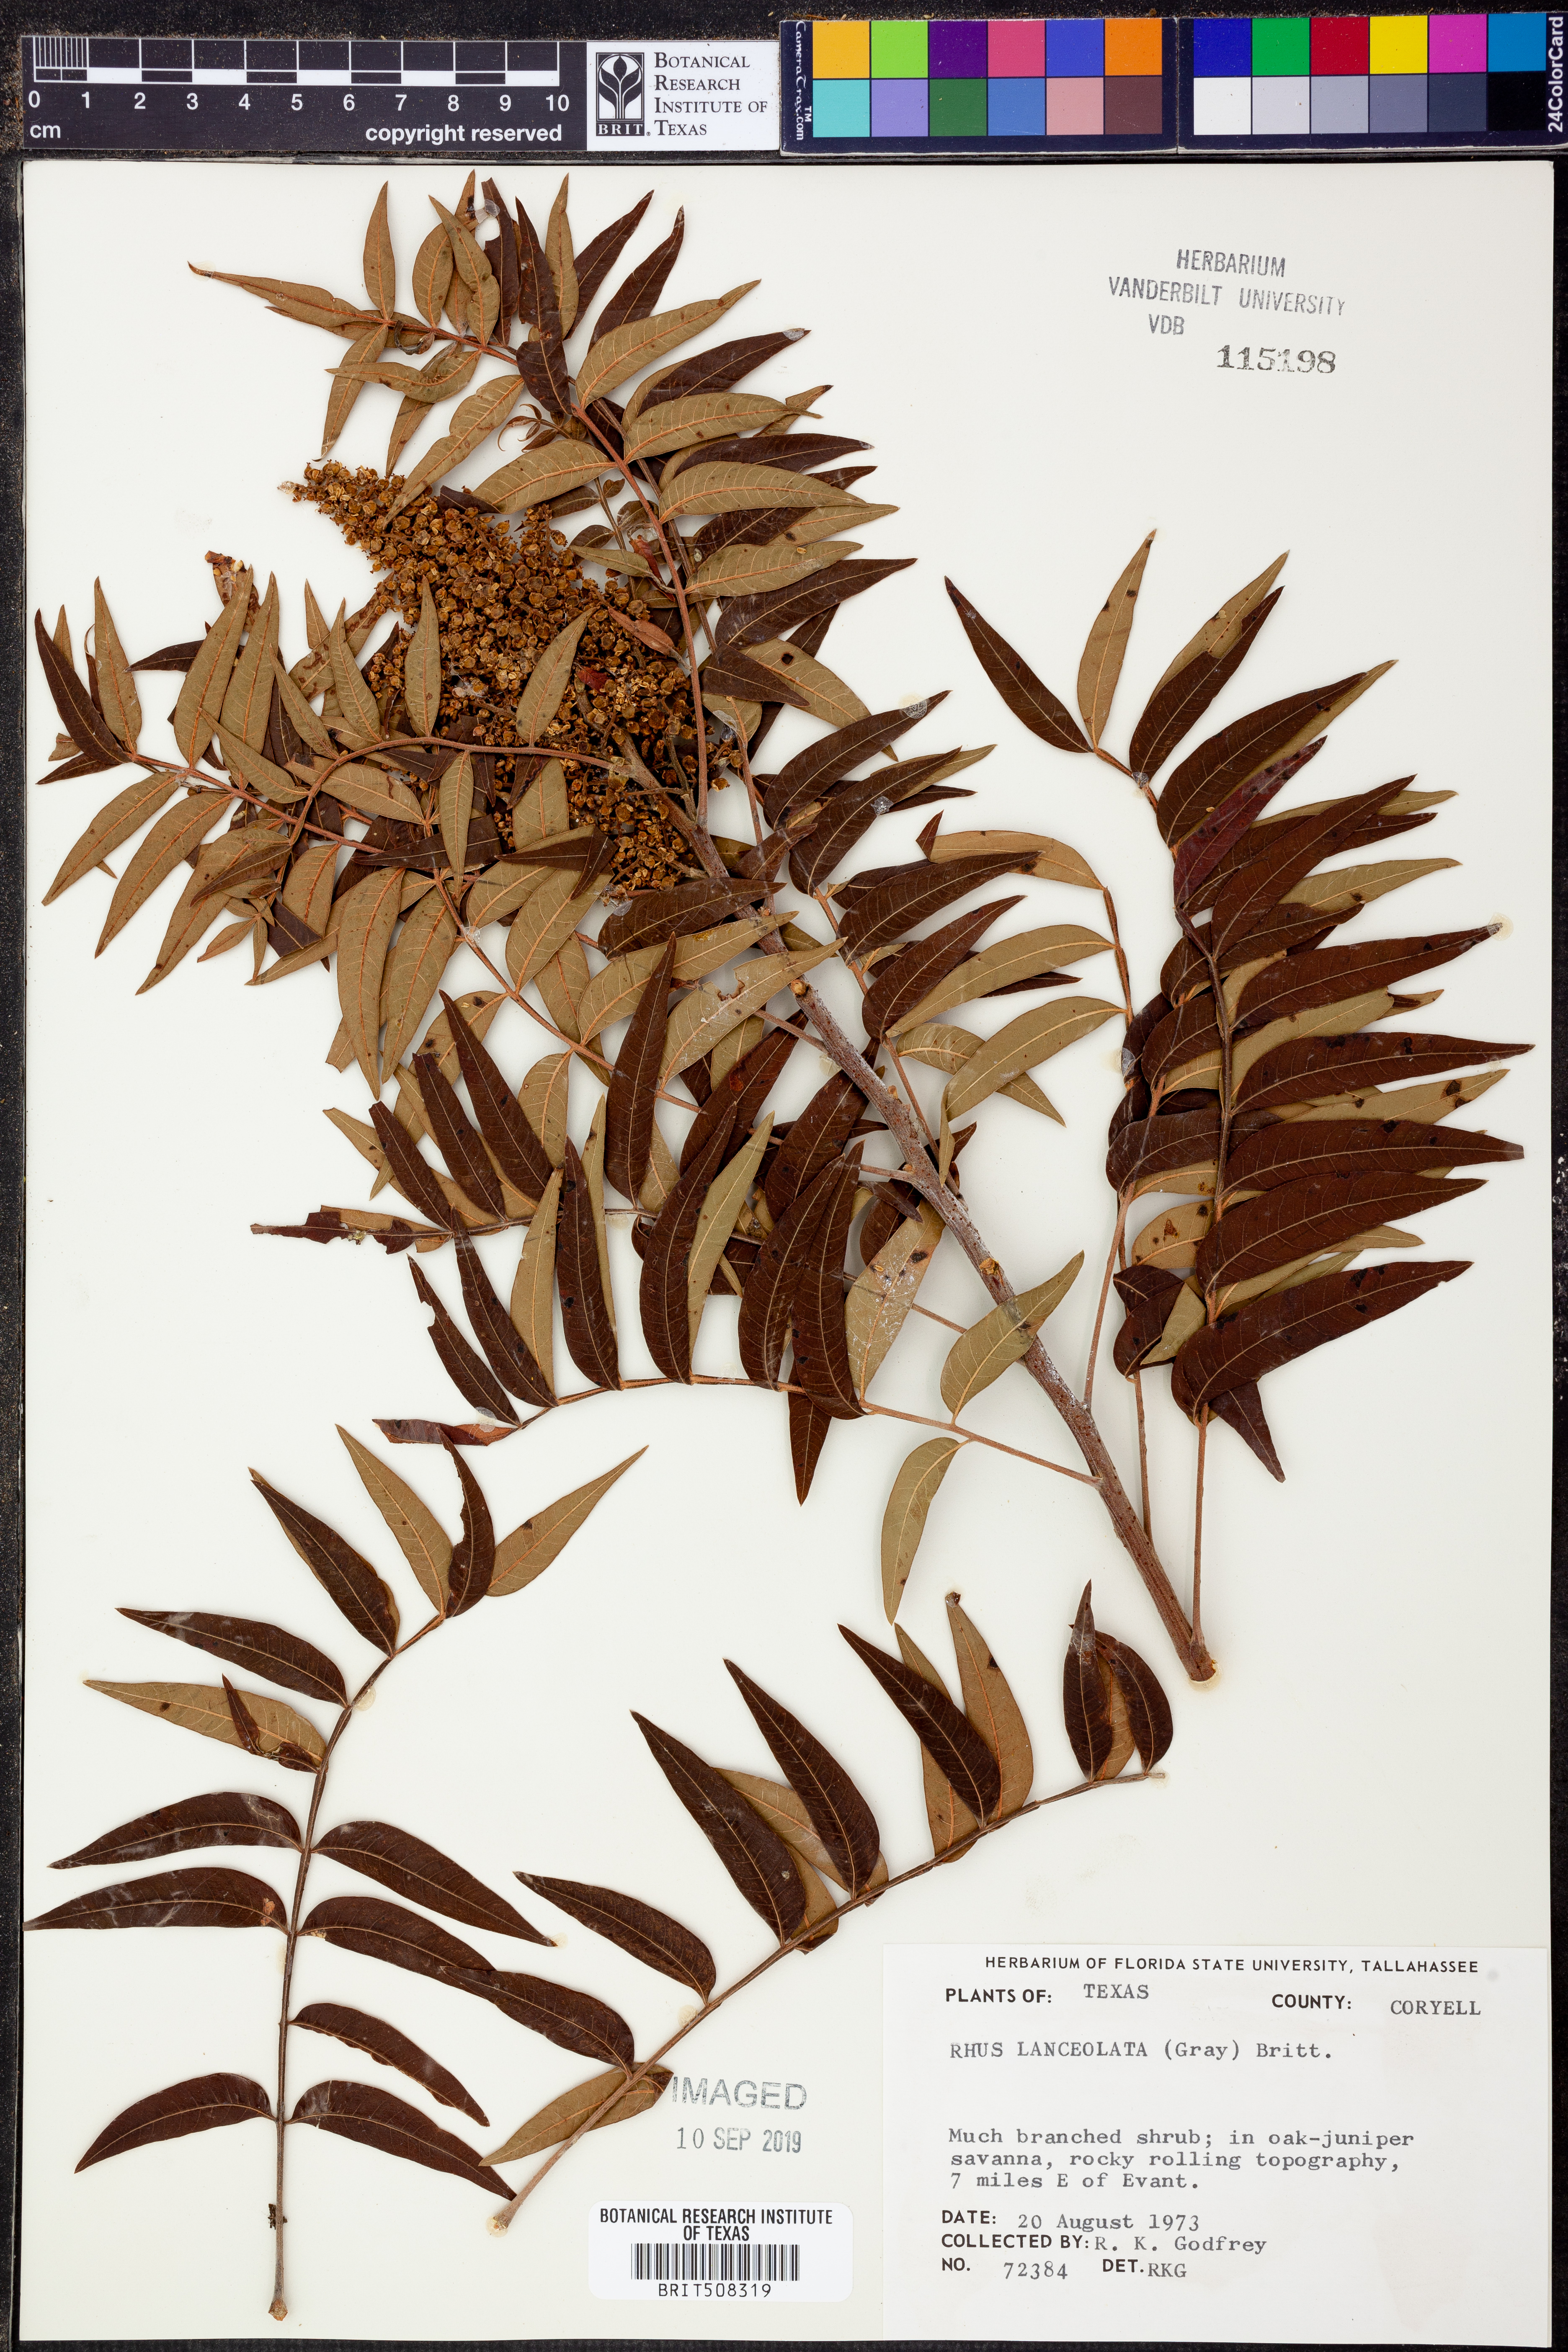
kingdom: Plantae
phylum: Tracheophyta
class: Magnoliopsida
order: Sapindales
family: Anacardiaceae
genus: Rhus
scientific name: Rhus lanceolata
